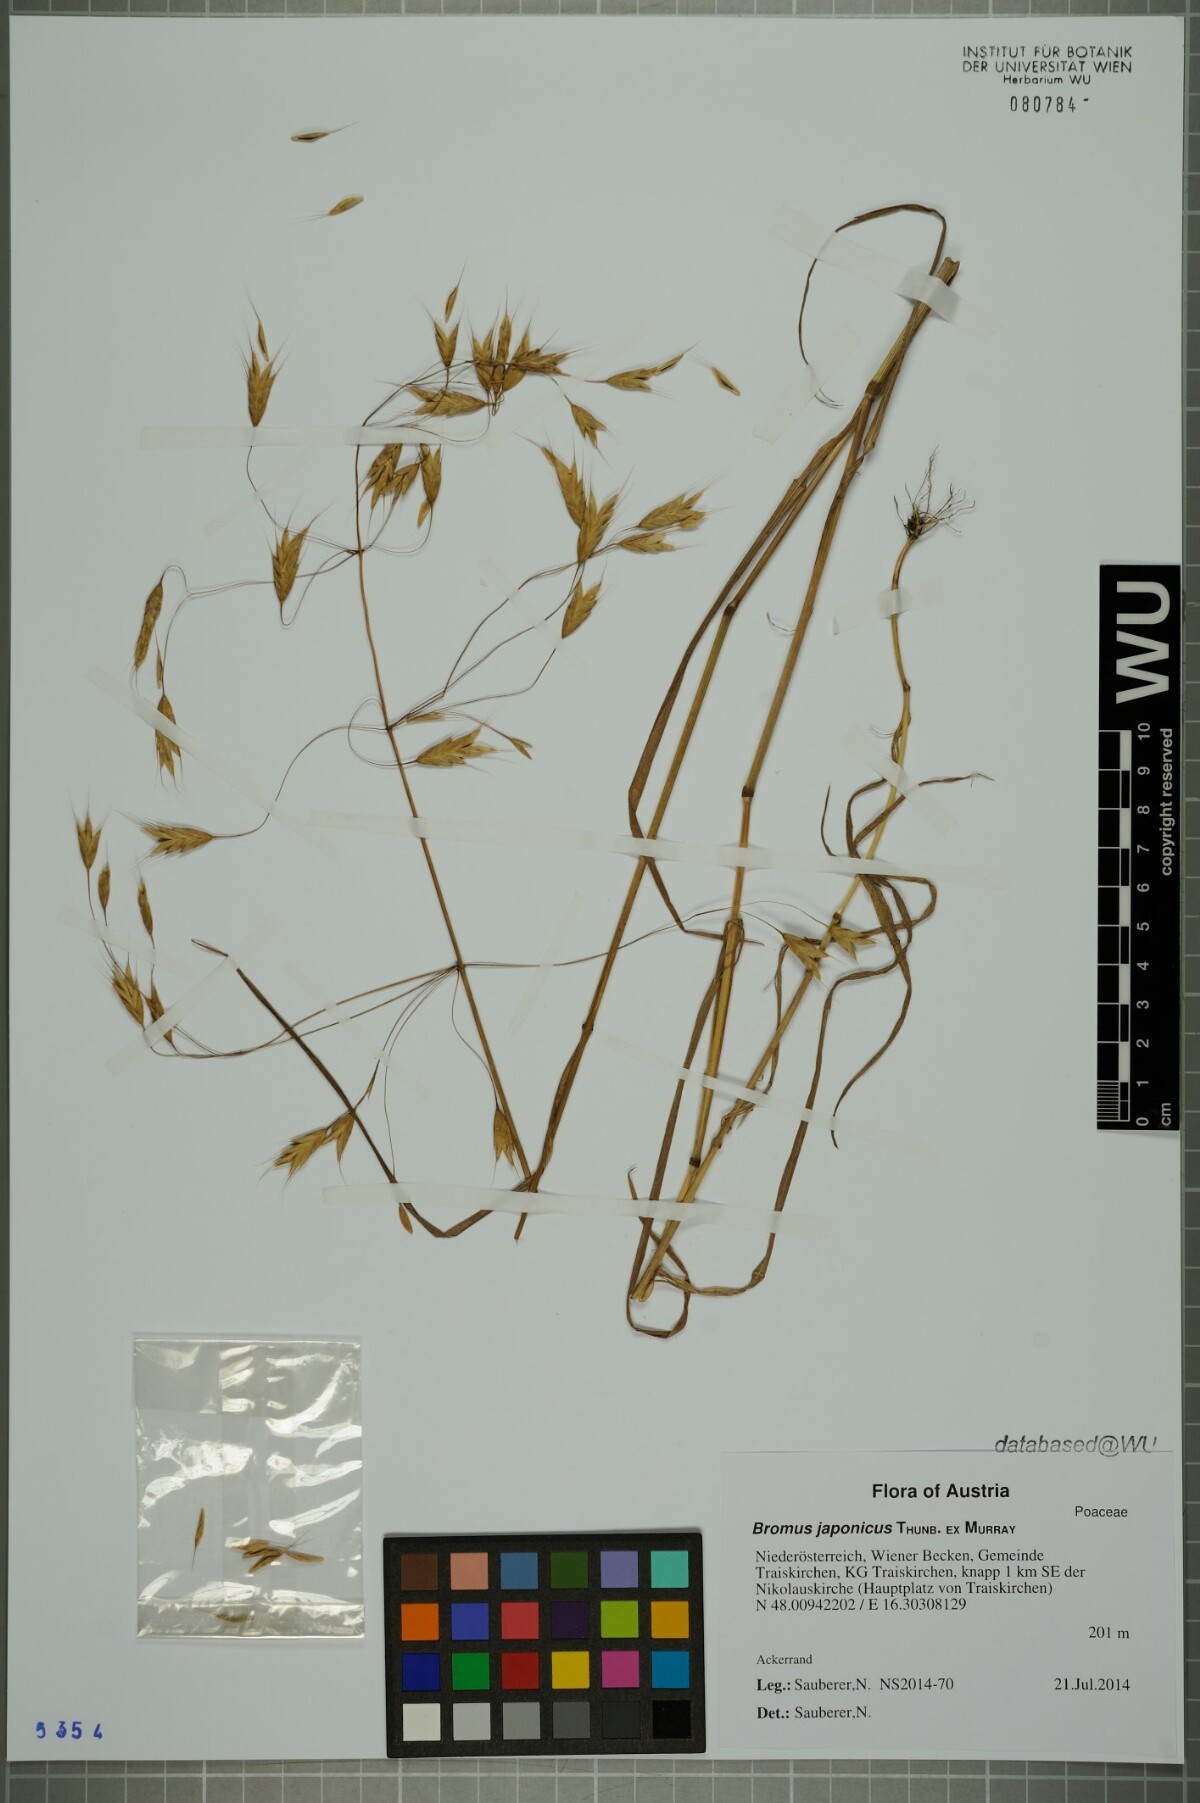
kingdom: Plantae
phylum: Tracheophyta
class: Liliopsida
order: Poales
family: Poaceae
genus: Bromus
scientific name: Bromus japonicus
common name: Japanese brome
